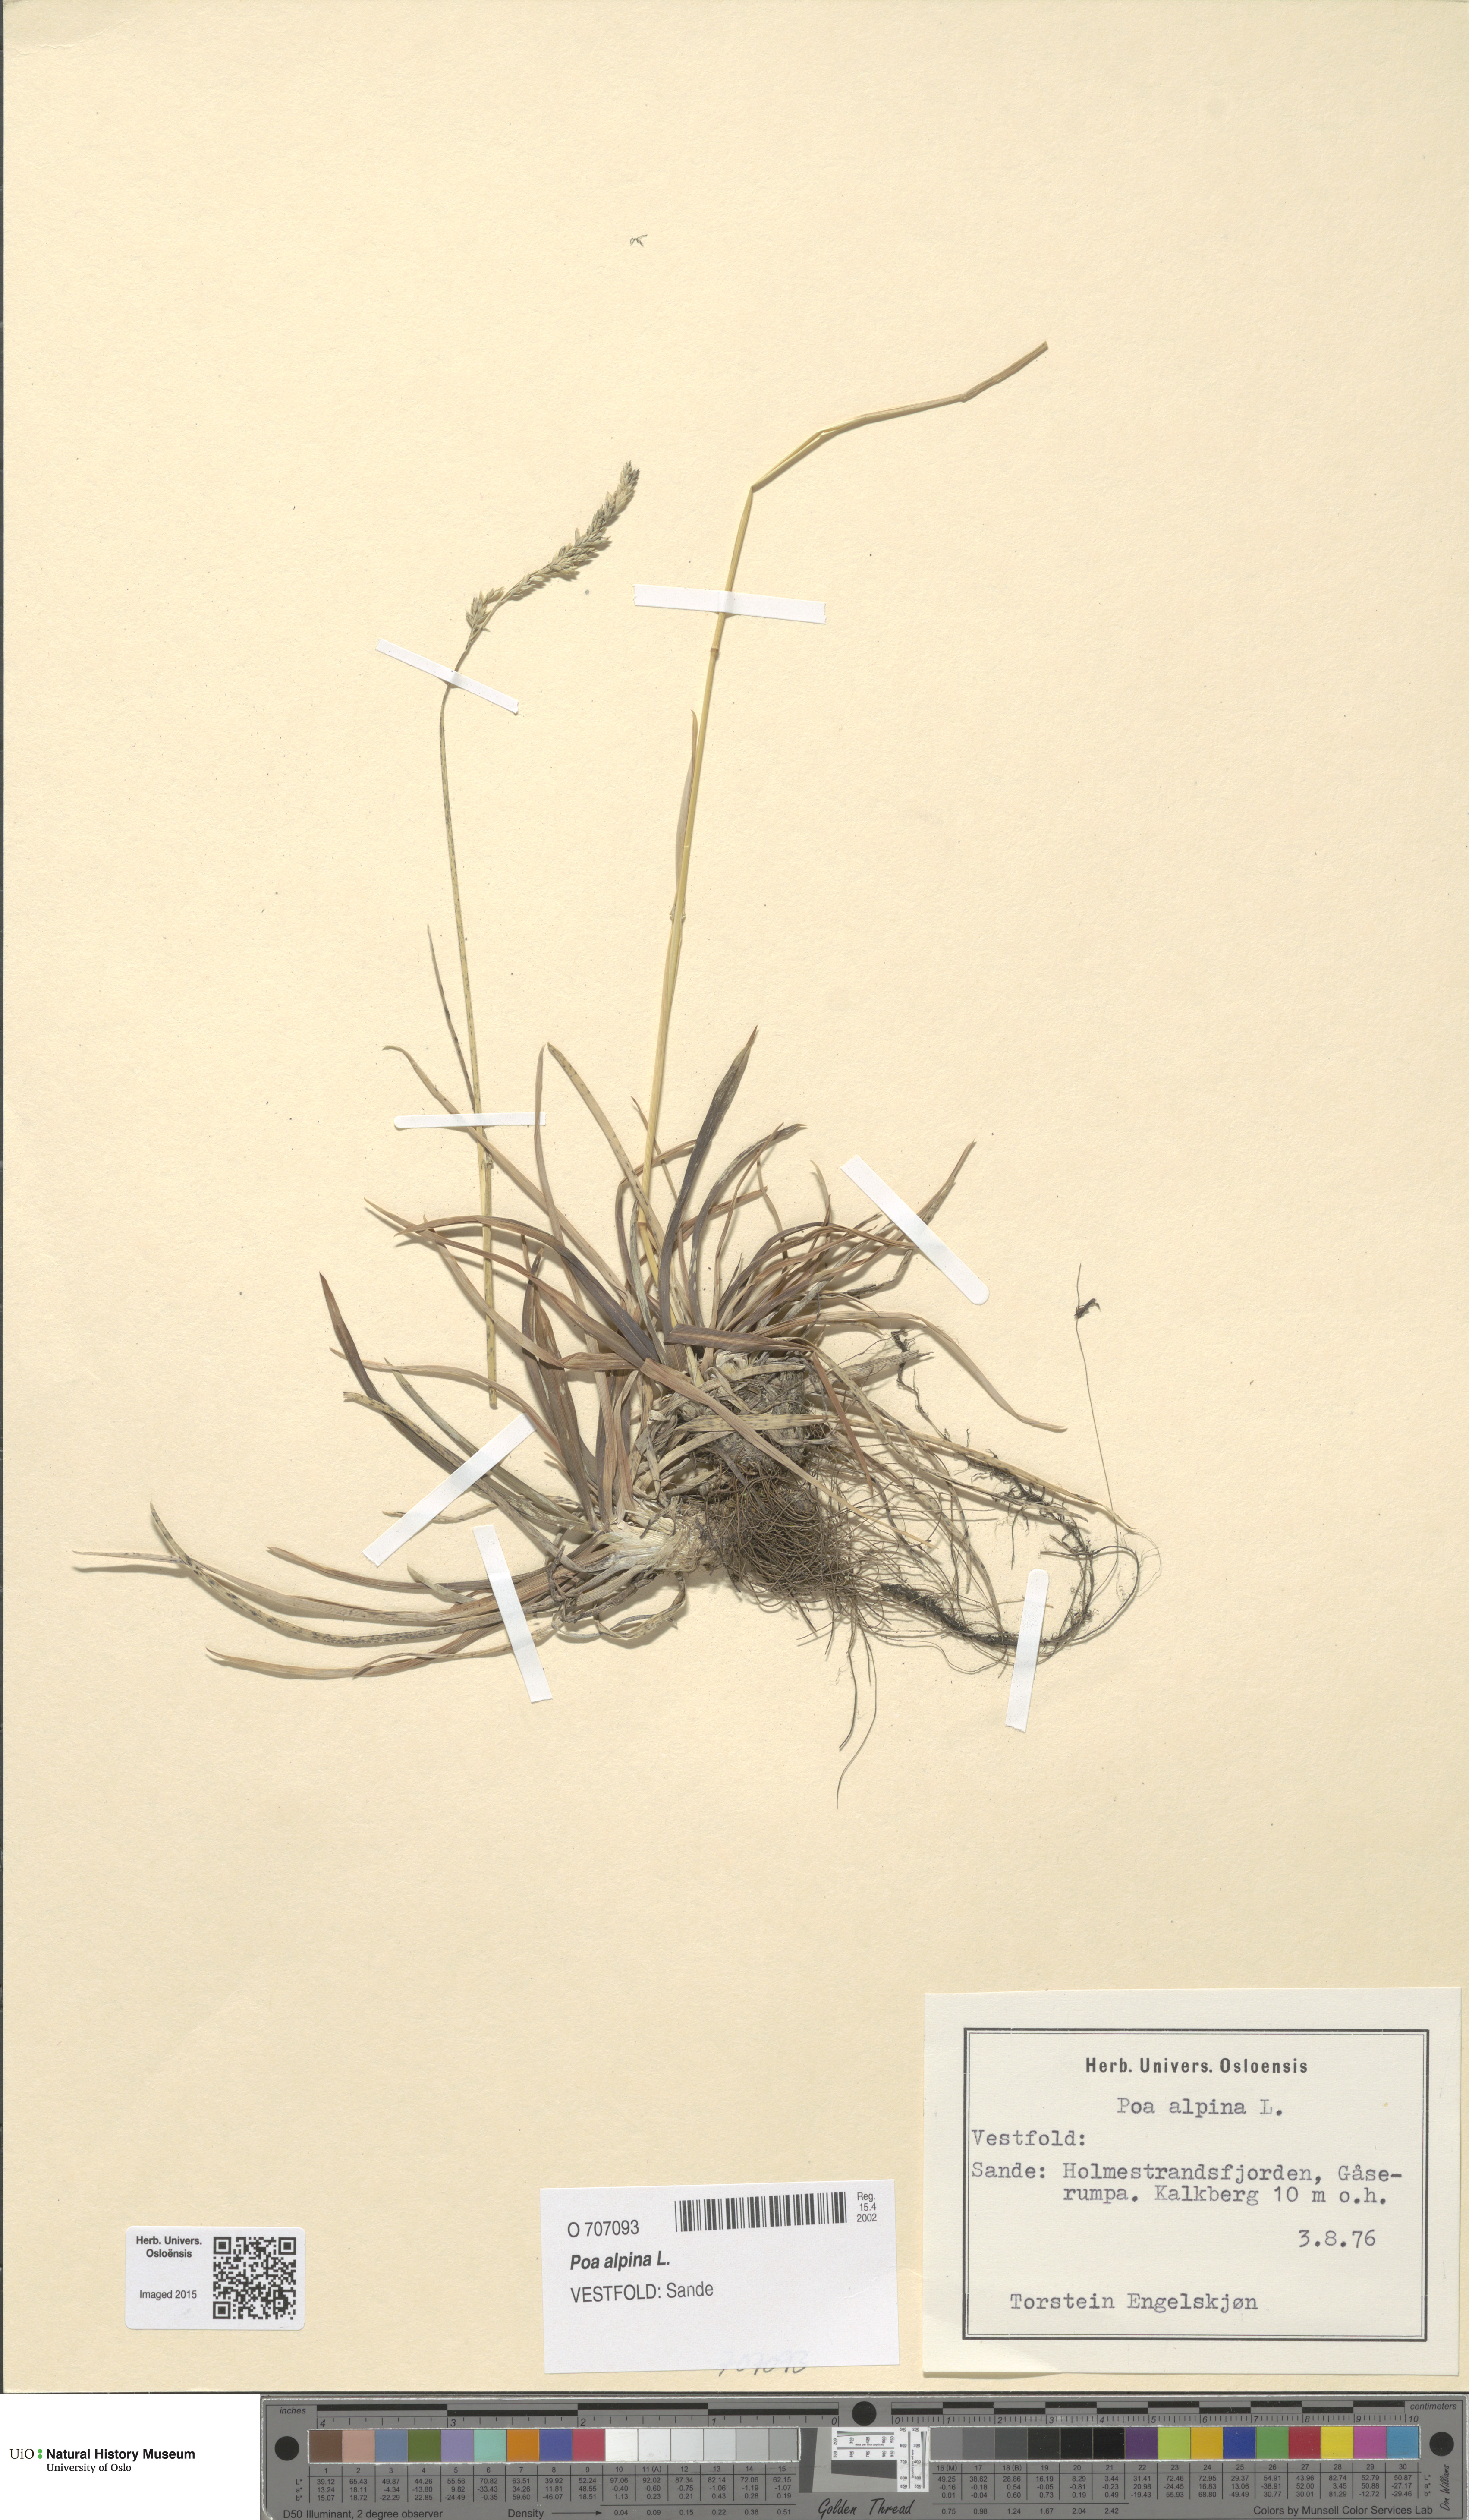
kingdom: Plantae
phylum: Tracheophyta
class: Liliopsida
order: Poales
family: Poaceae
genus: Poa
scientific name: Poa alpina
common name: Alpine bluegrass
